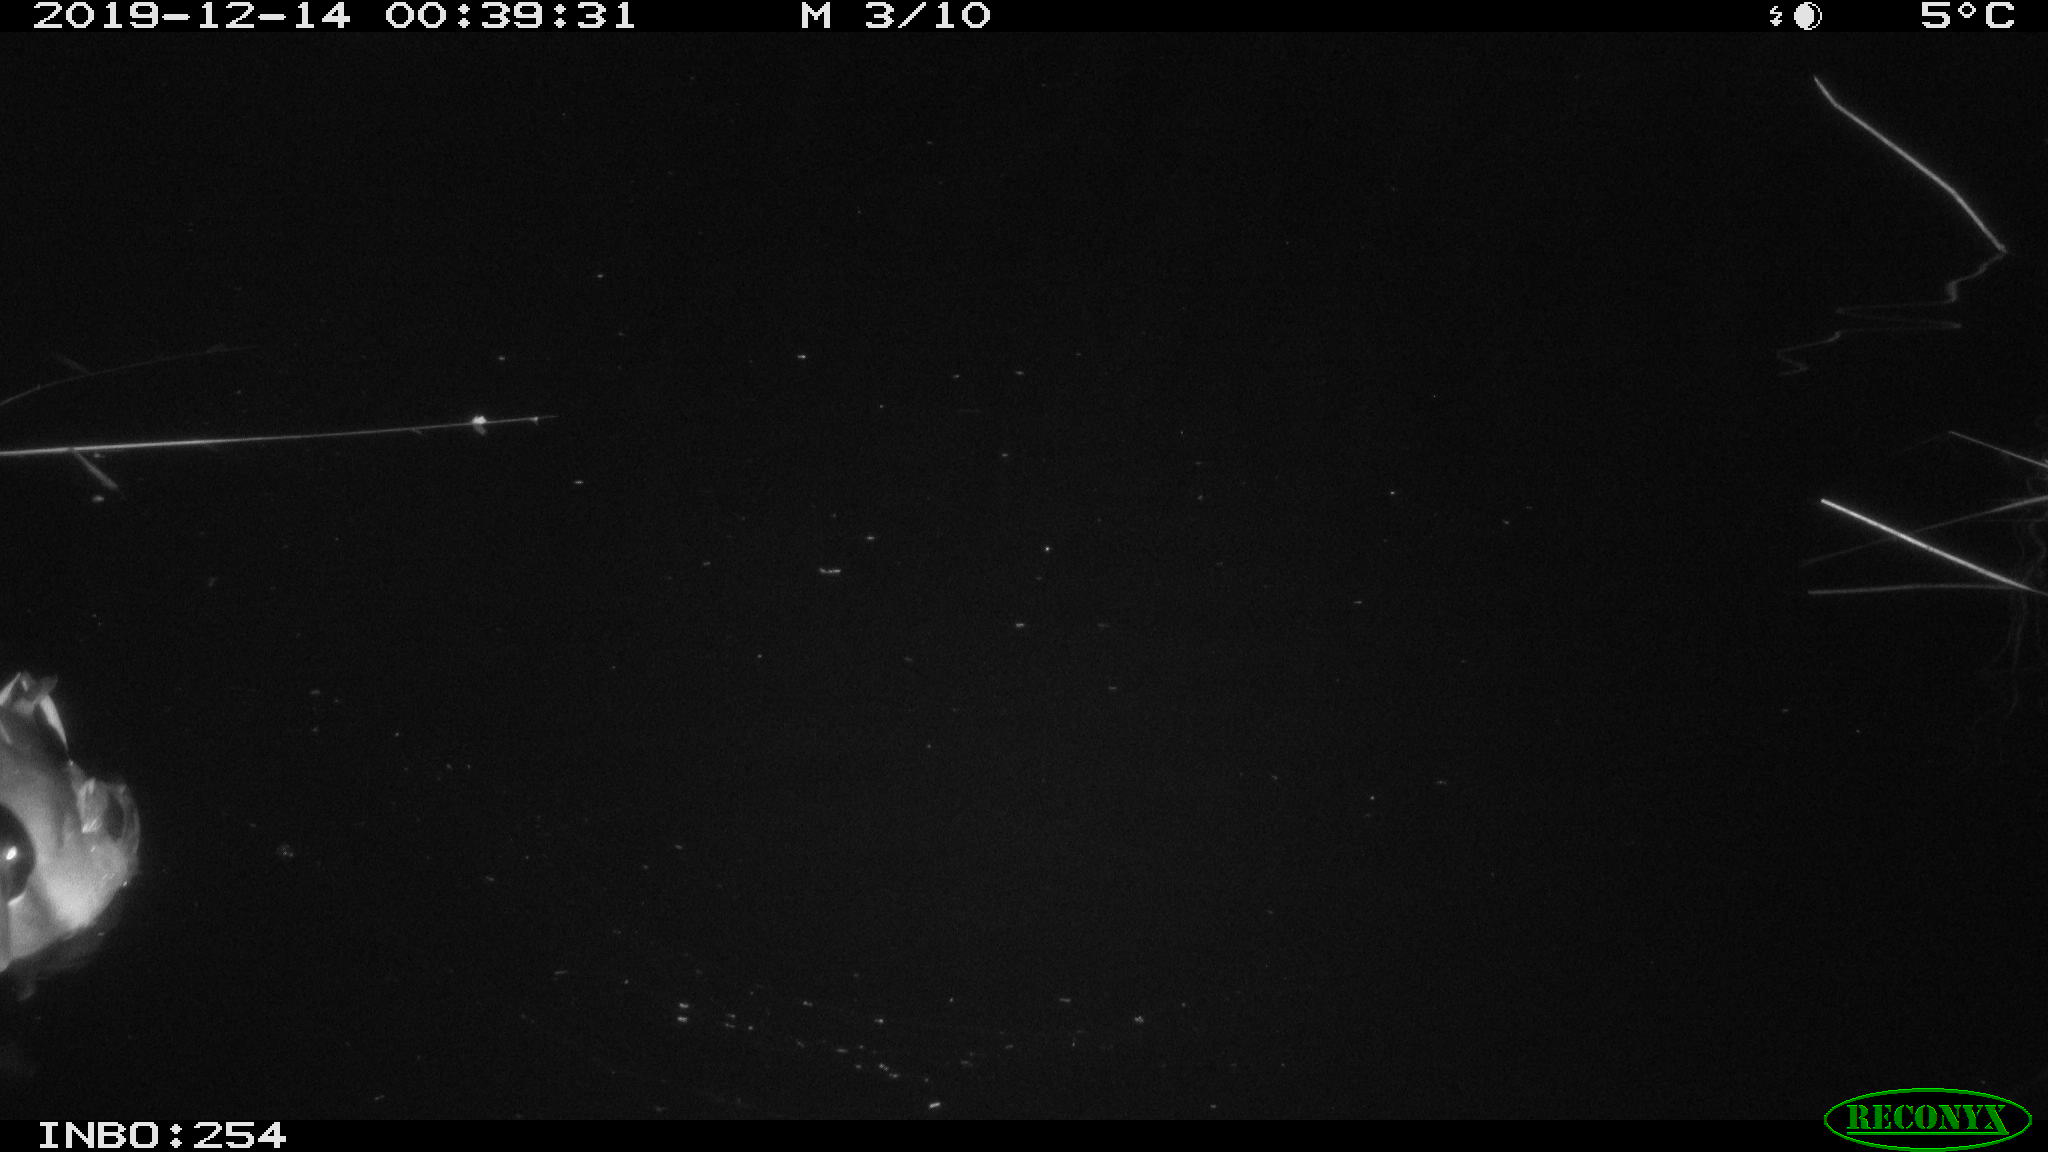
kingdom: Animalia
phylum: Chordata
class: Aves
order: Anseriformes
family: Anatidae
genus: Anas
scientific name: Anas platyrhynchos
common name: Mallard
